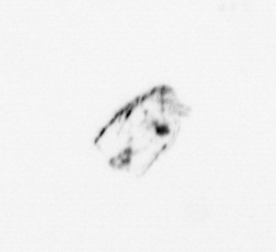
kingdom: Animalia
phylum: Arthropoda
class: Maxillopoda
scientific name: Maxillopoda
